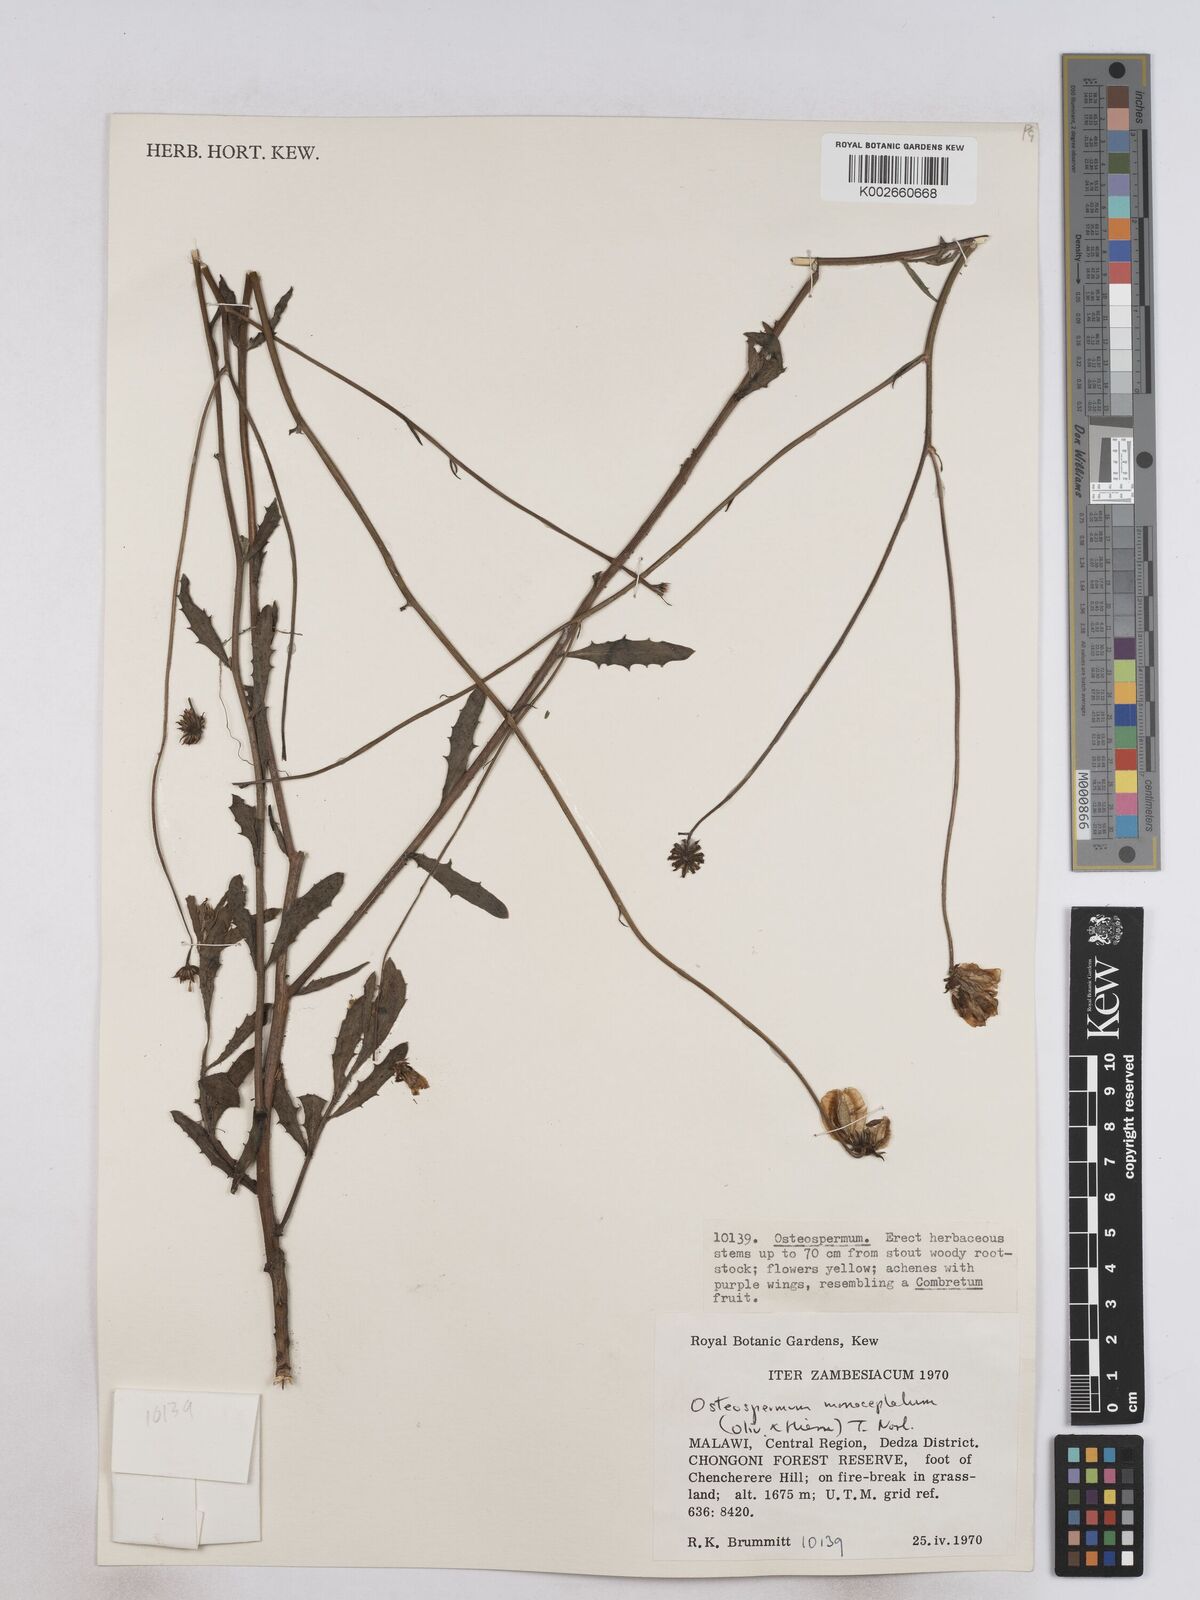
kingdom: Plantae
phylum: Tracheophyta
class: Magnoliopsida
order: Asterales
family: Asteraceae
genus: Osteospermum
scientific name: Osteospermum monocephalum
